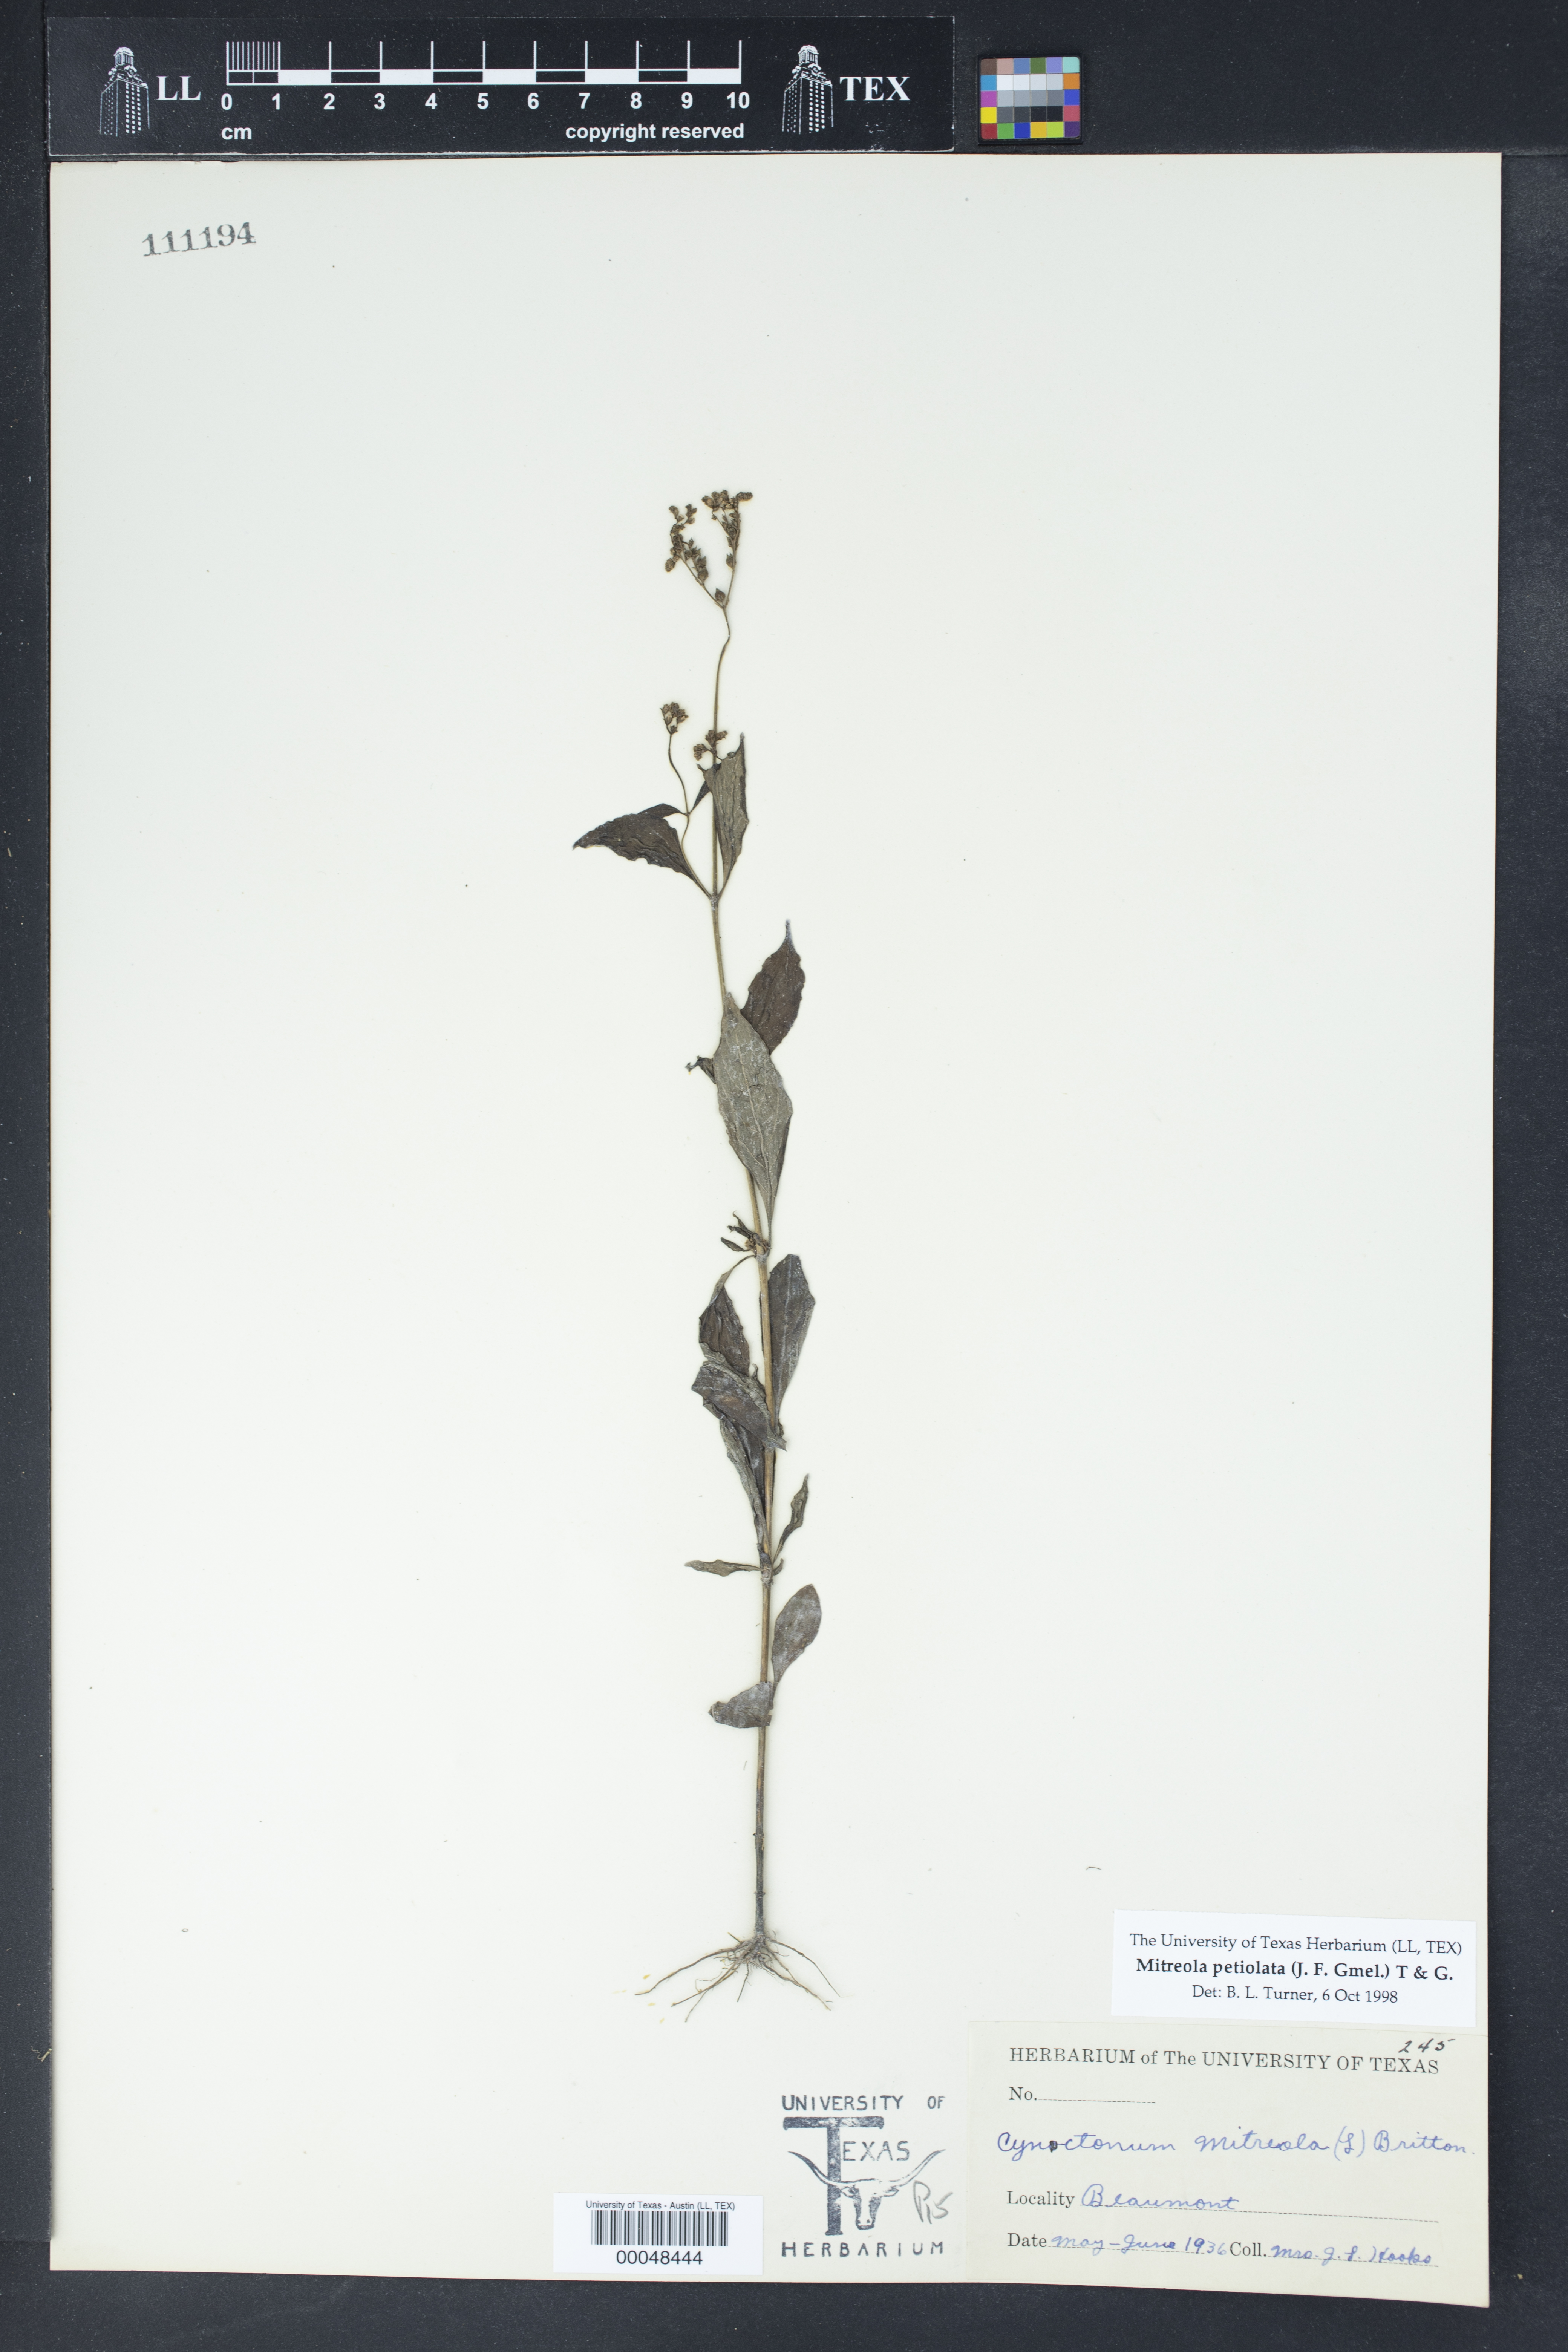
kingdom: Plantae
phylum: Tracheophyta
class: Magnoliopsida
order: Gentianales
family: Loganiaceae
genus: Mitreola
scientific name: Mitreola petiolata
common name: Lax hornpod
